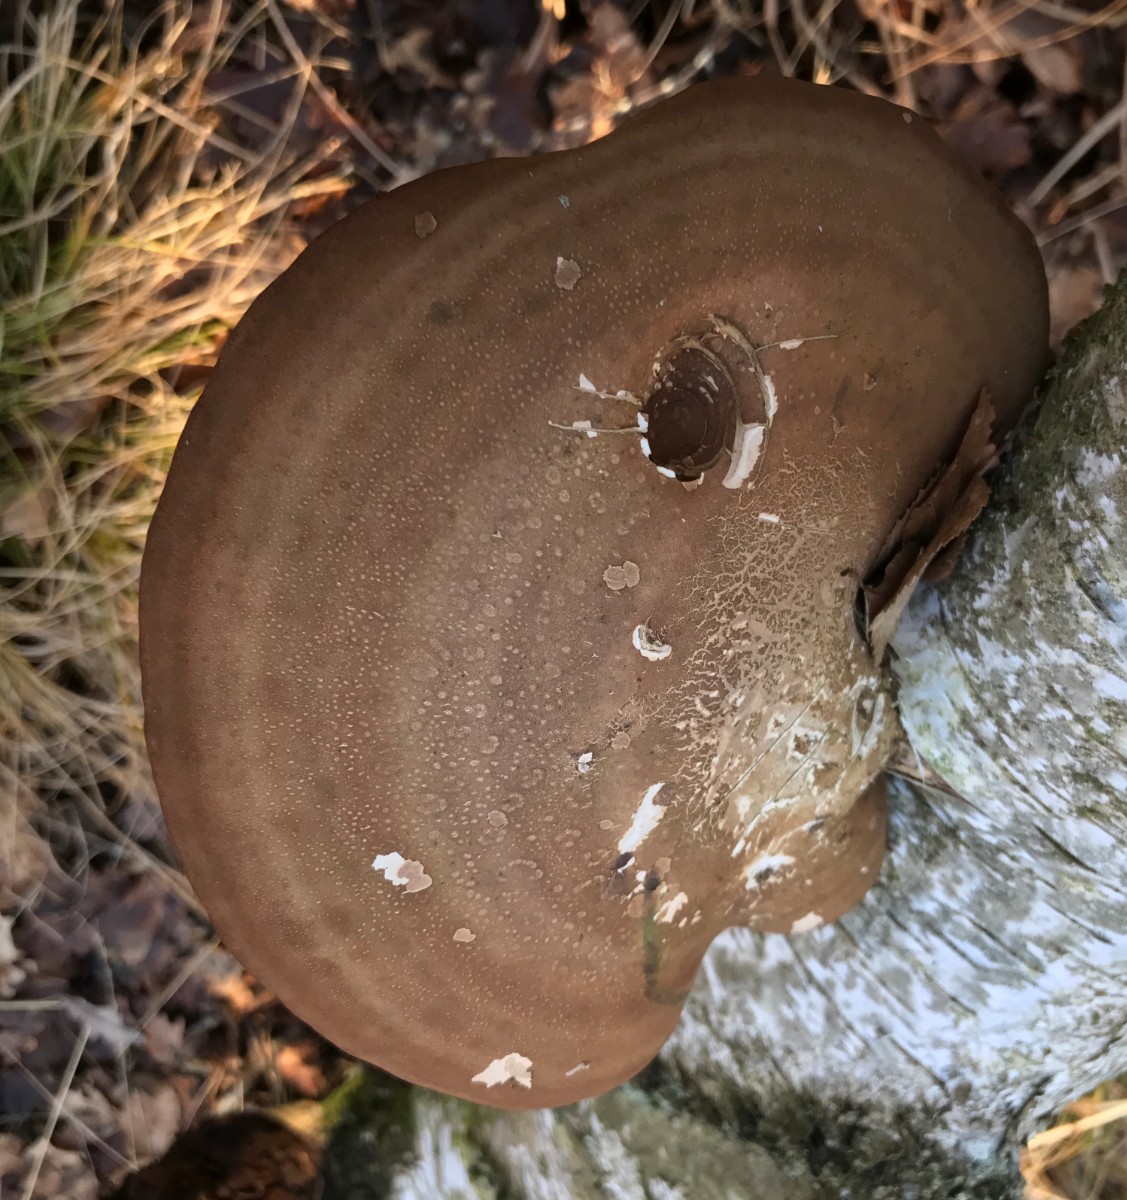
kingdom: Fungi
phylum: Basidiomycota
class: Agaricomycetes
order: Polyporales
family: Fomitopsidaceae
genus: Fomitopsis
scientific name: Fomitopsis betulina
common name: birkeporesvamp
